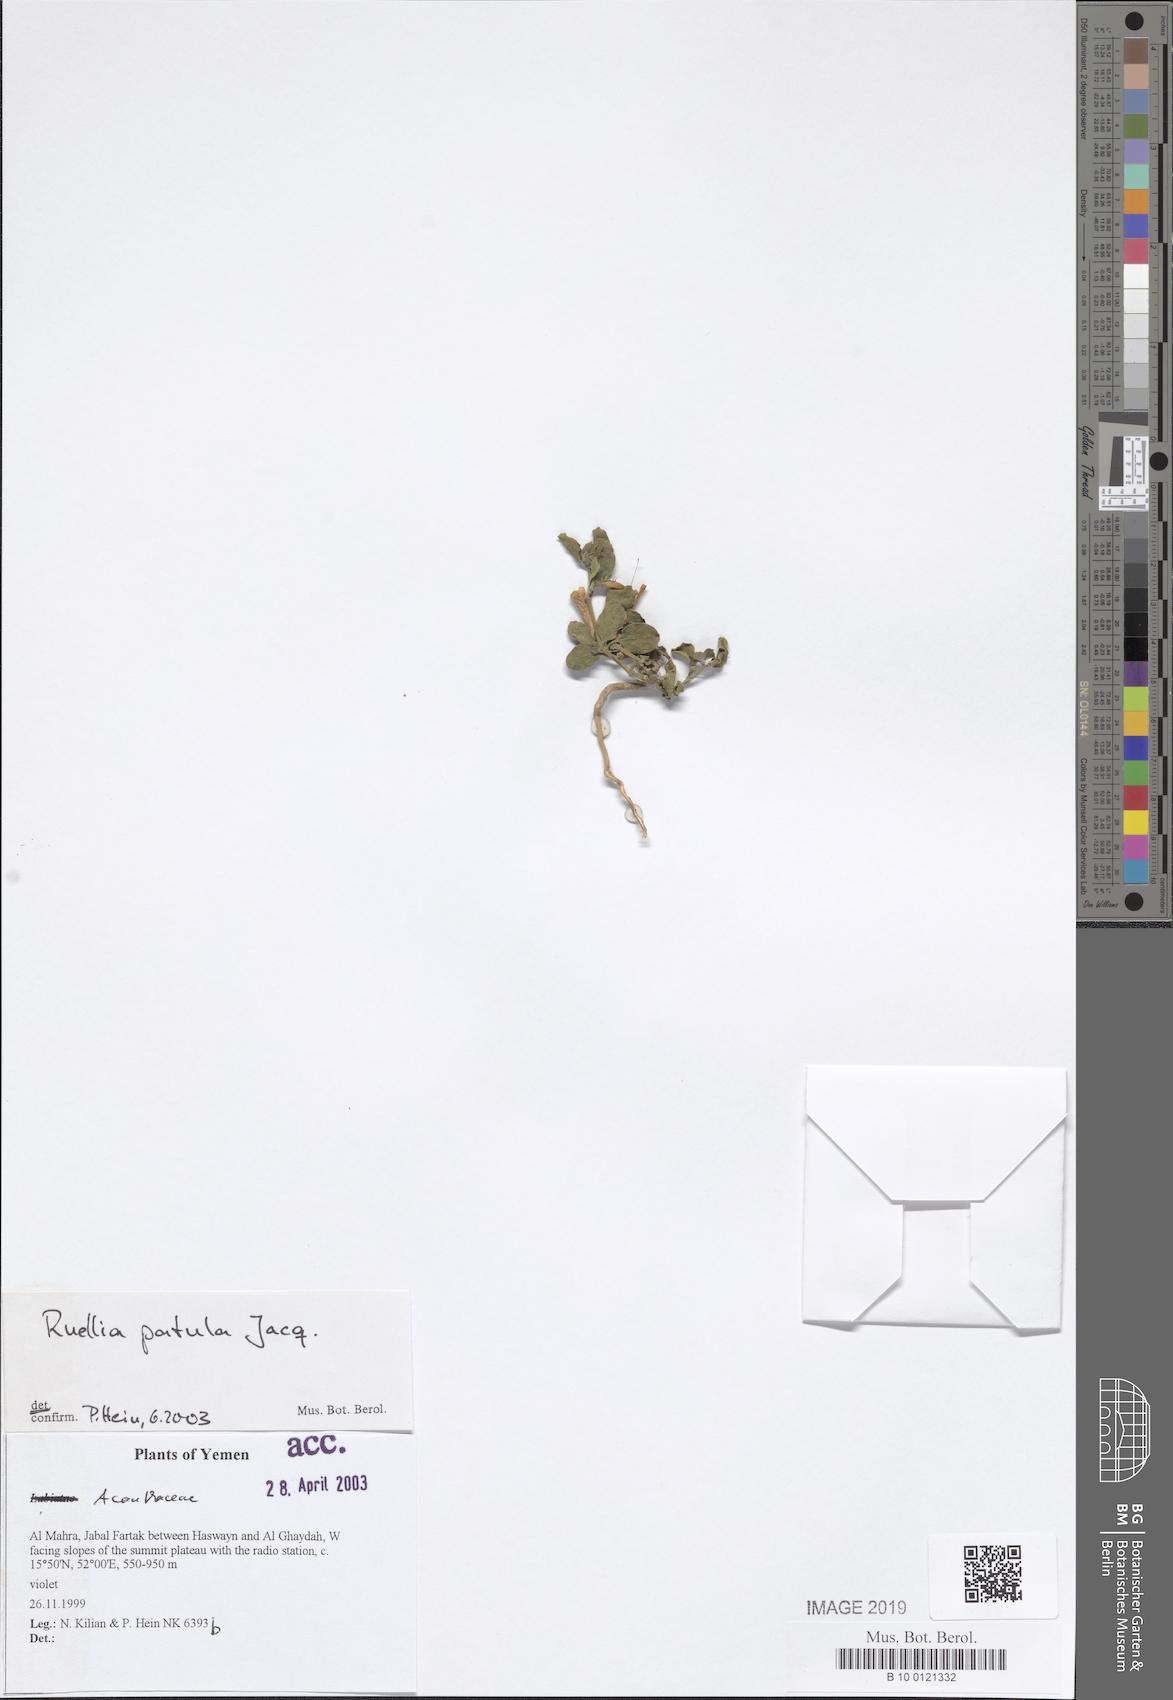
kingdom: Plantae
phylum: Tracheophyta
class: Magnoliopsida
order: Lamiales
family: Acanthaceae
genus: Ruellia
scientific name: Ruellia patula
